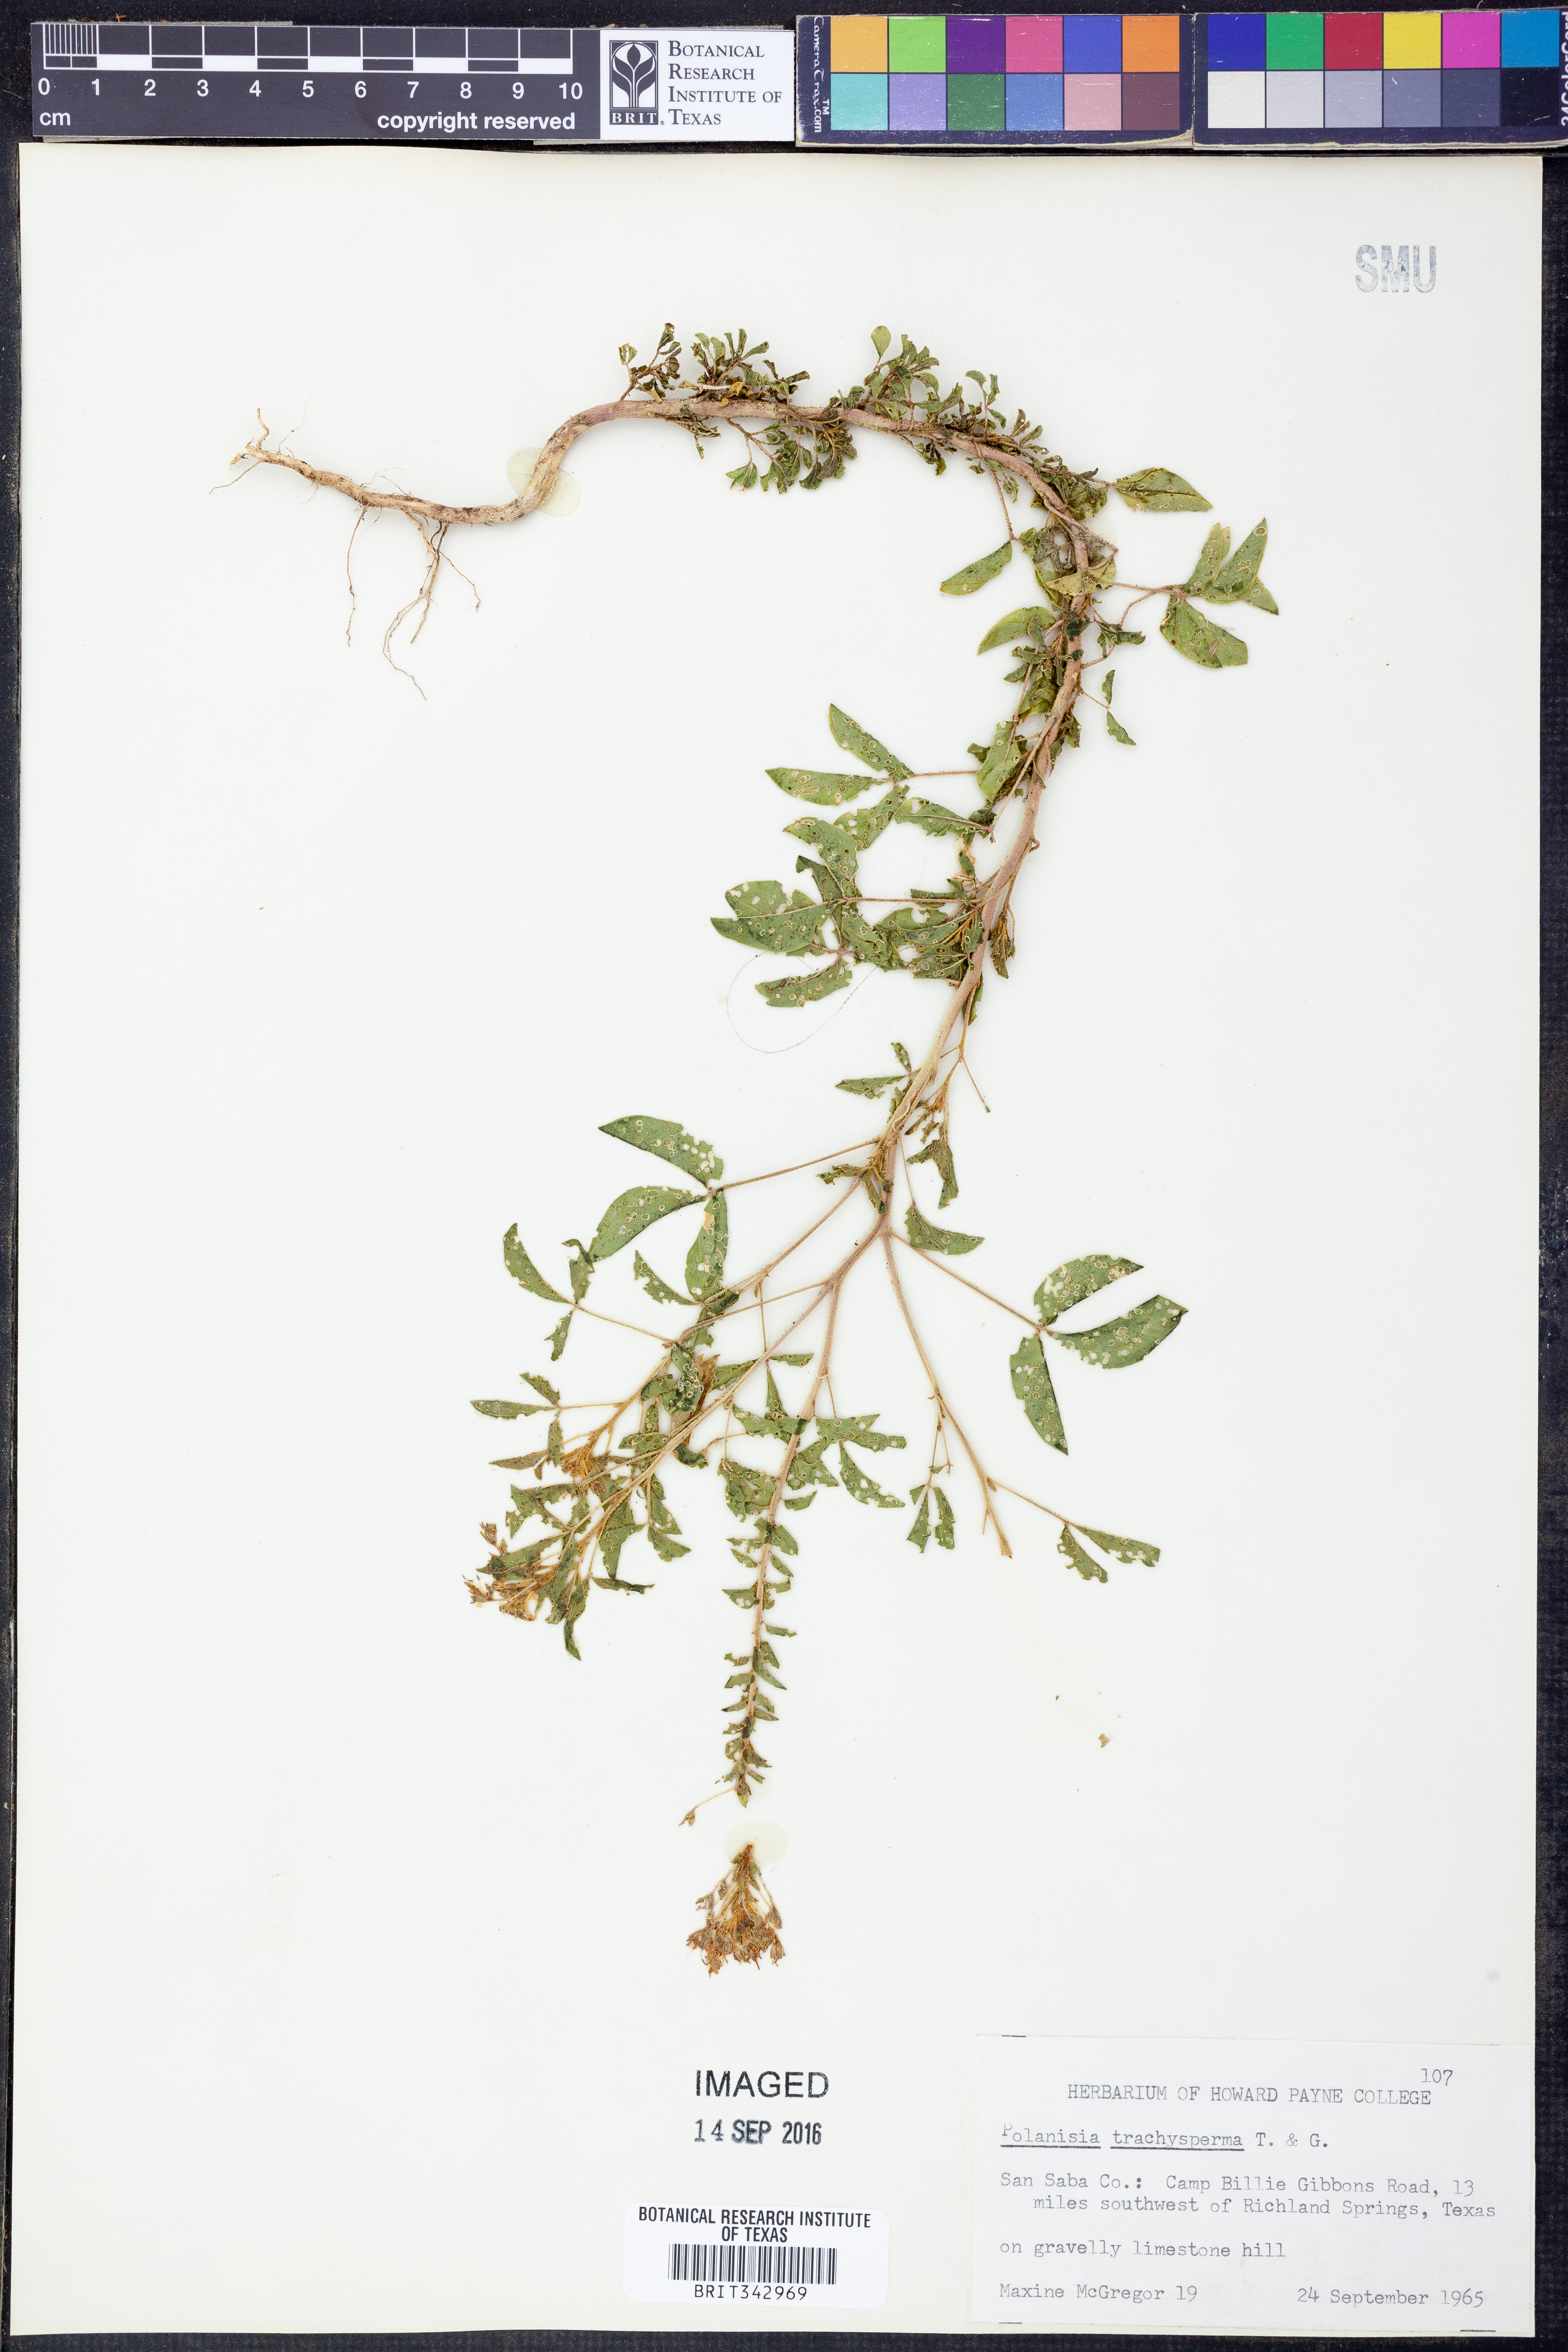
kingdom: Plantae
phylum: Tracheophyta
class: Magnoliopsida
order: Brassicales
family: Cleomaceae
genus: Polanisia
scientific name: Polanisia trachysperma
